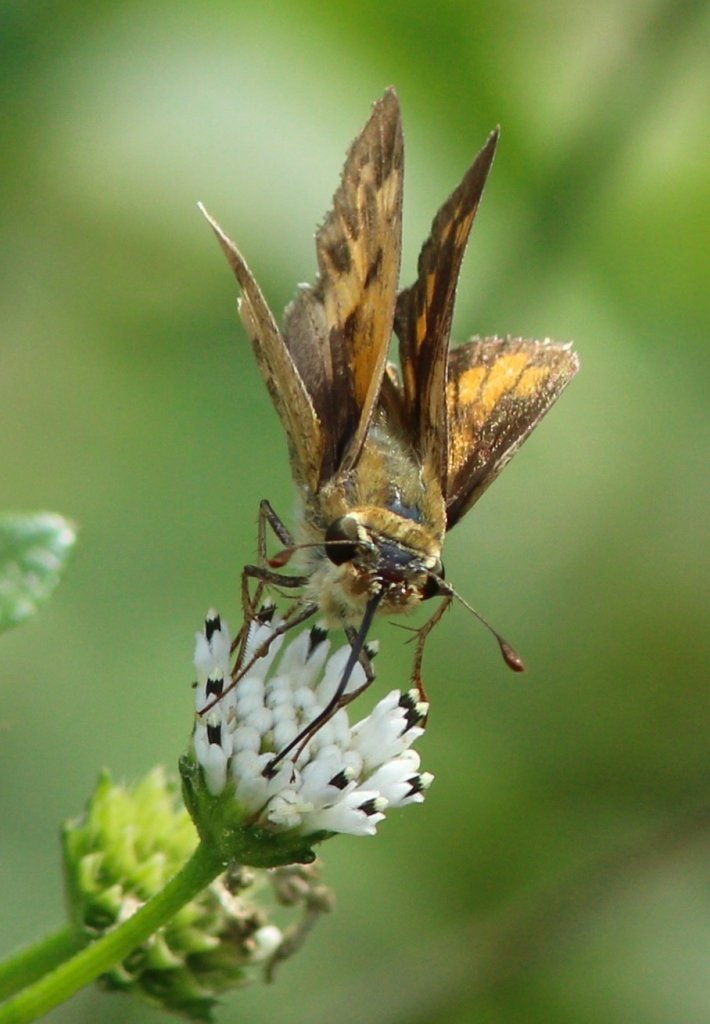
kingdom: Animalia
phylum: Arthropoda
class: Insecta
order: Lepidoptera
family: Hesperiidae
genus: Hylephila
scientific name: Hylephila phyleus
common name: Fiery Skipper
